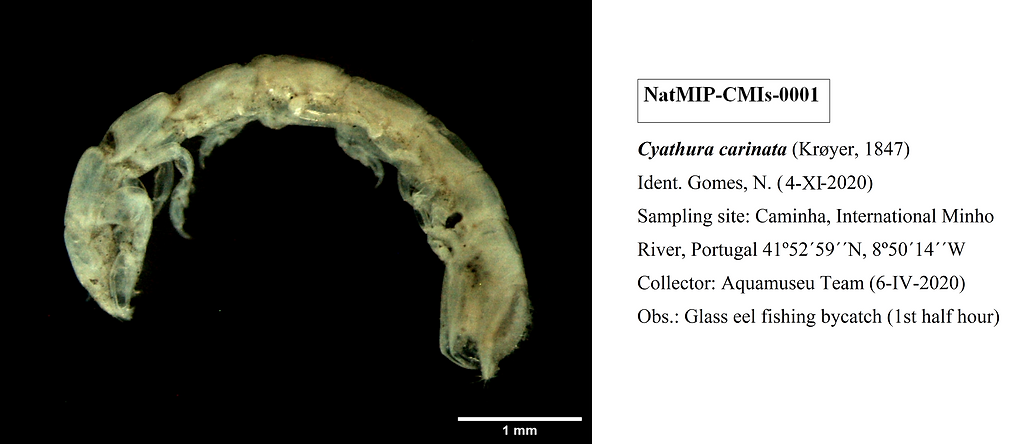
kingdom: Animalia
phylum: Arthropoda
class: Malacostraca
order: Isopoda
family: Anthuridae
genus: Cyathura
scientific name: Cyathura carinata
